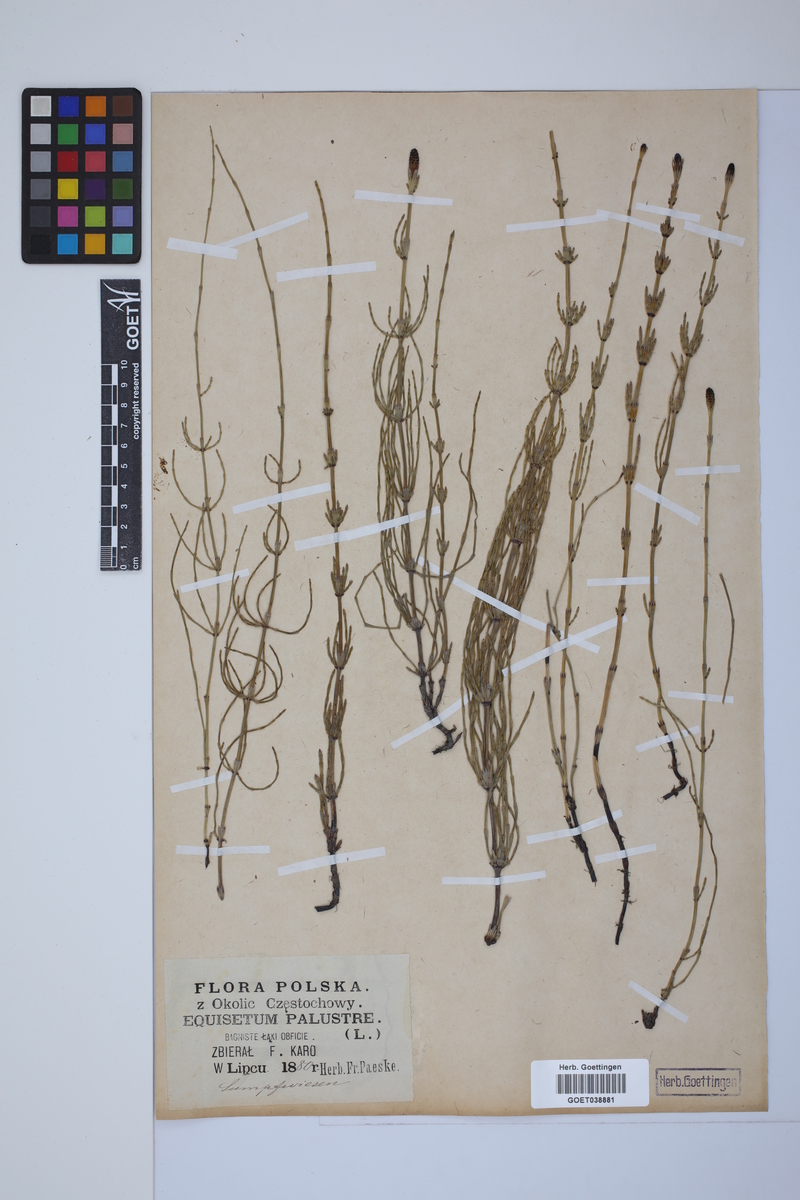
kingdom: Plantae
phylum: Tracheophyta
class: Polypodiopsida
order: Equisetales
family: Equisetaceae
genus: Equisetum
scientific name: Equisetum palustre
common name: Marsh horsetail
